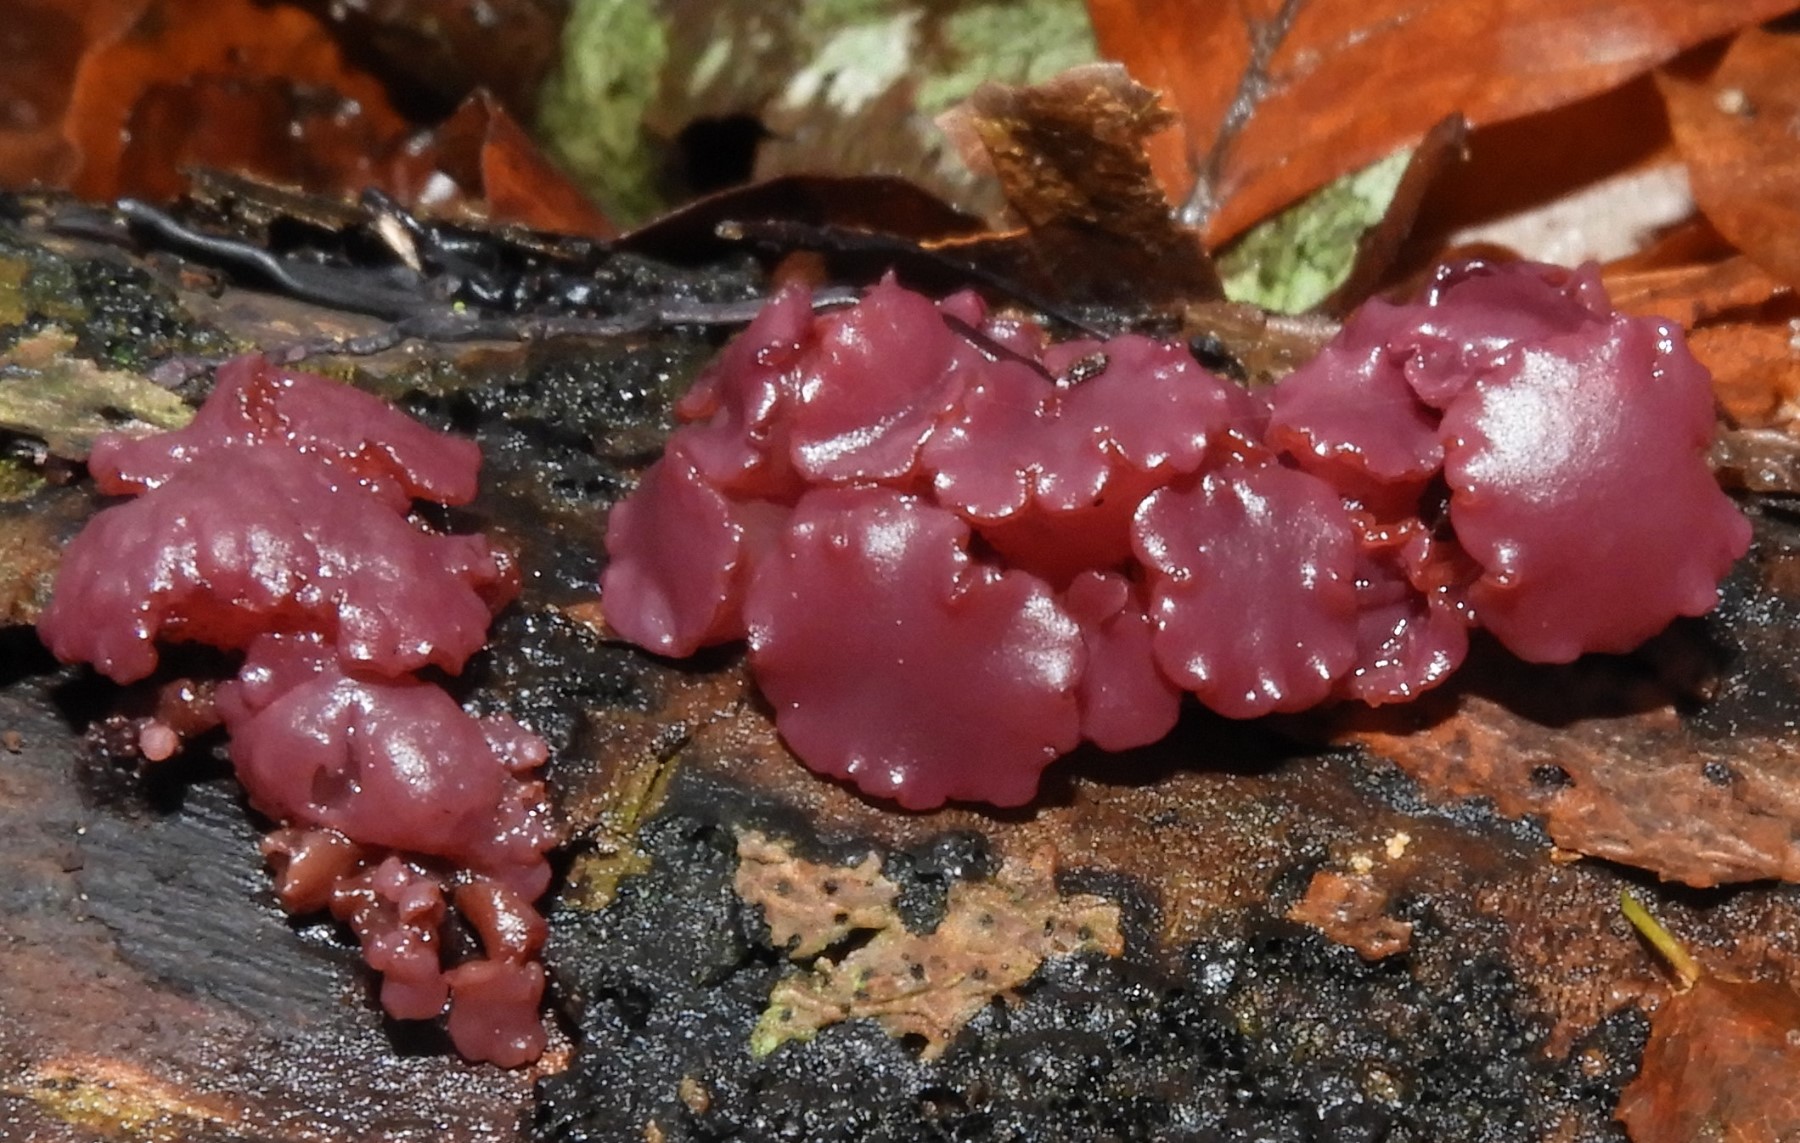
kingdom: Fungi
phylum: Ascomycota
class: Leotiomycetes
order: Helotiales
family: Gelatinodiscaceae
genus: Ascocoryne
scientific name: Ascocoryne sarcoides
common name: rødlilla sejskive
